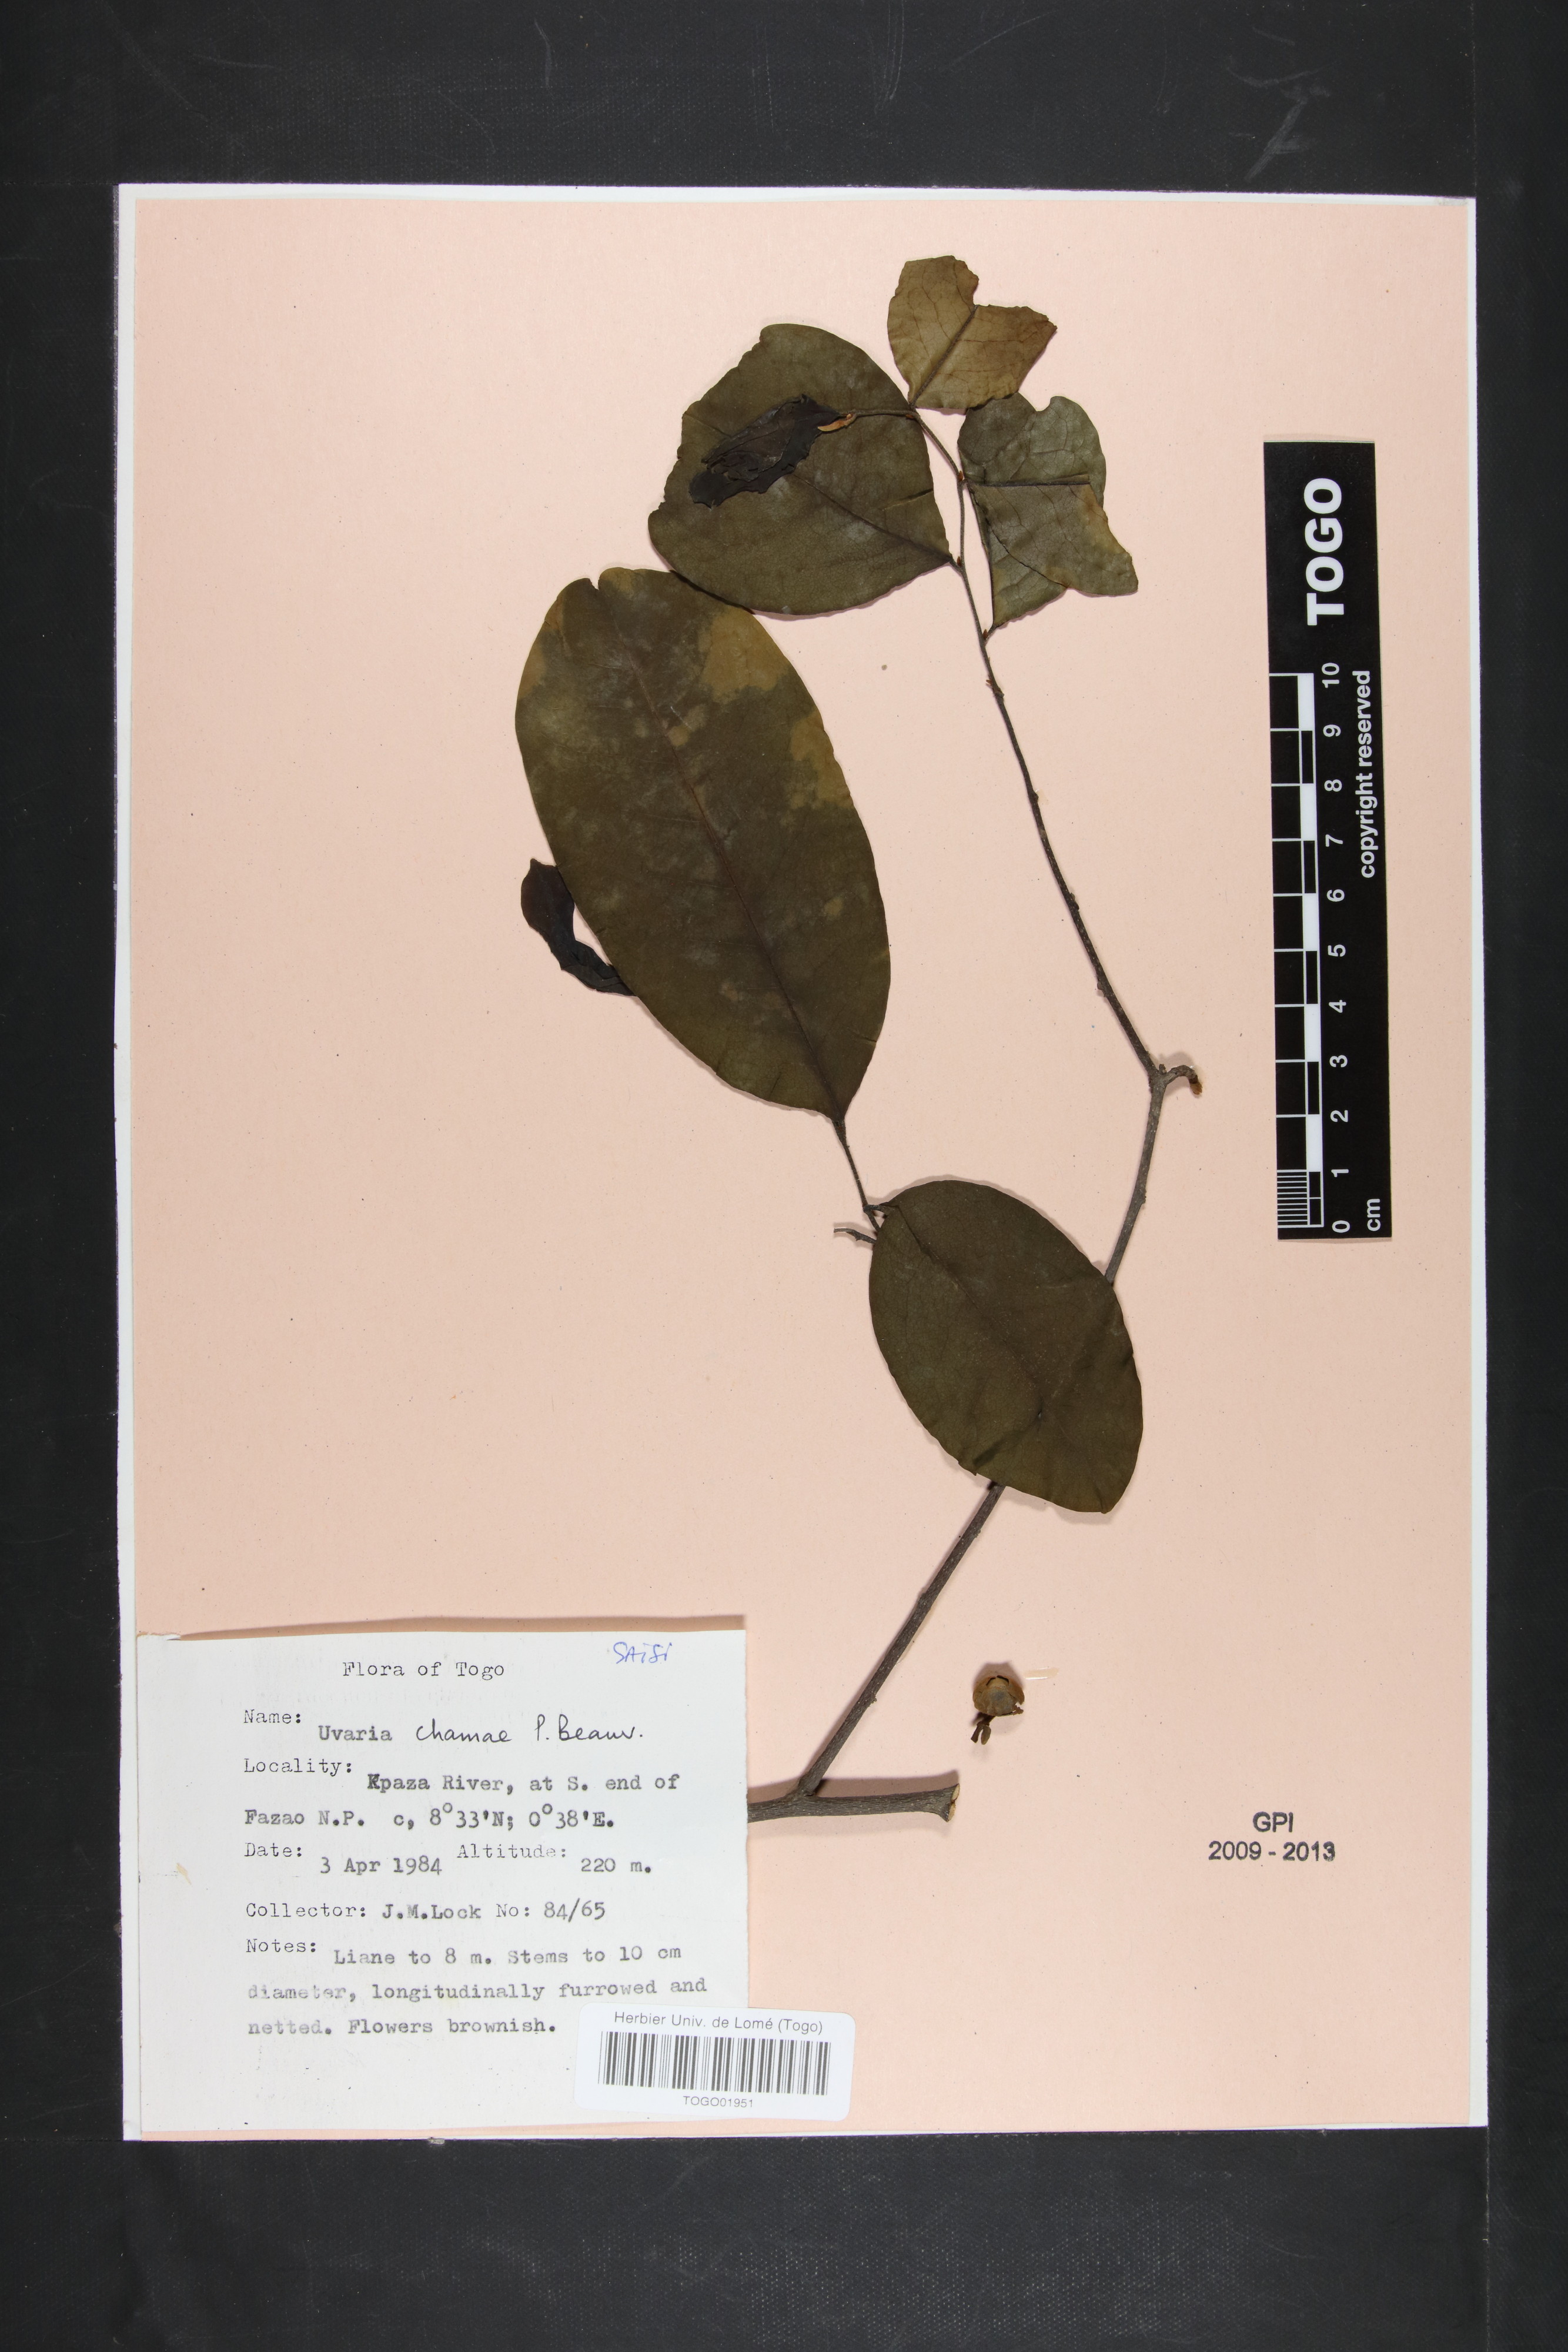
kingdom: Plantae
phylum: Tracheophyta
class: Magnoliopsida
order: Magnoliales
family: Annonaceae
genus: Uvaria
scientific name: Uvaria chamae
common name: Finger-root
